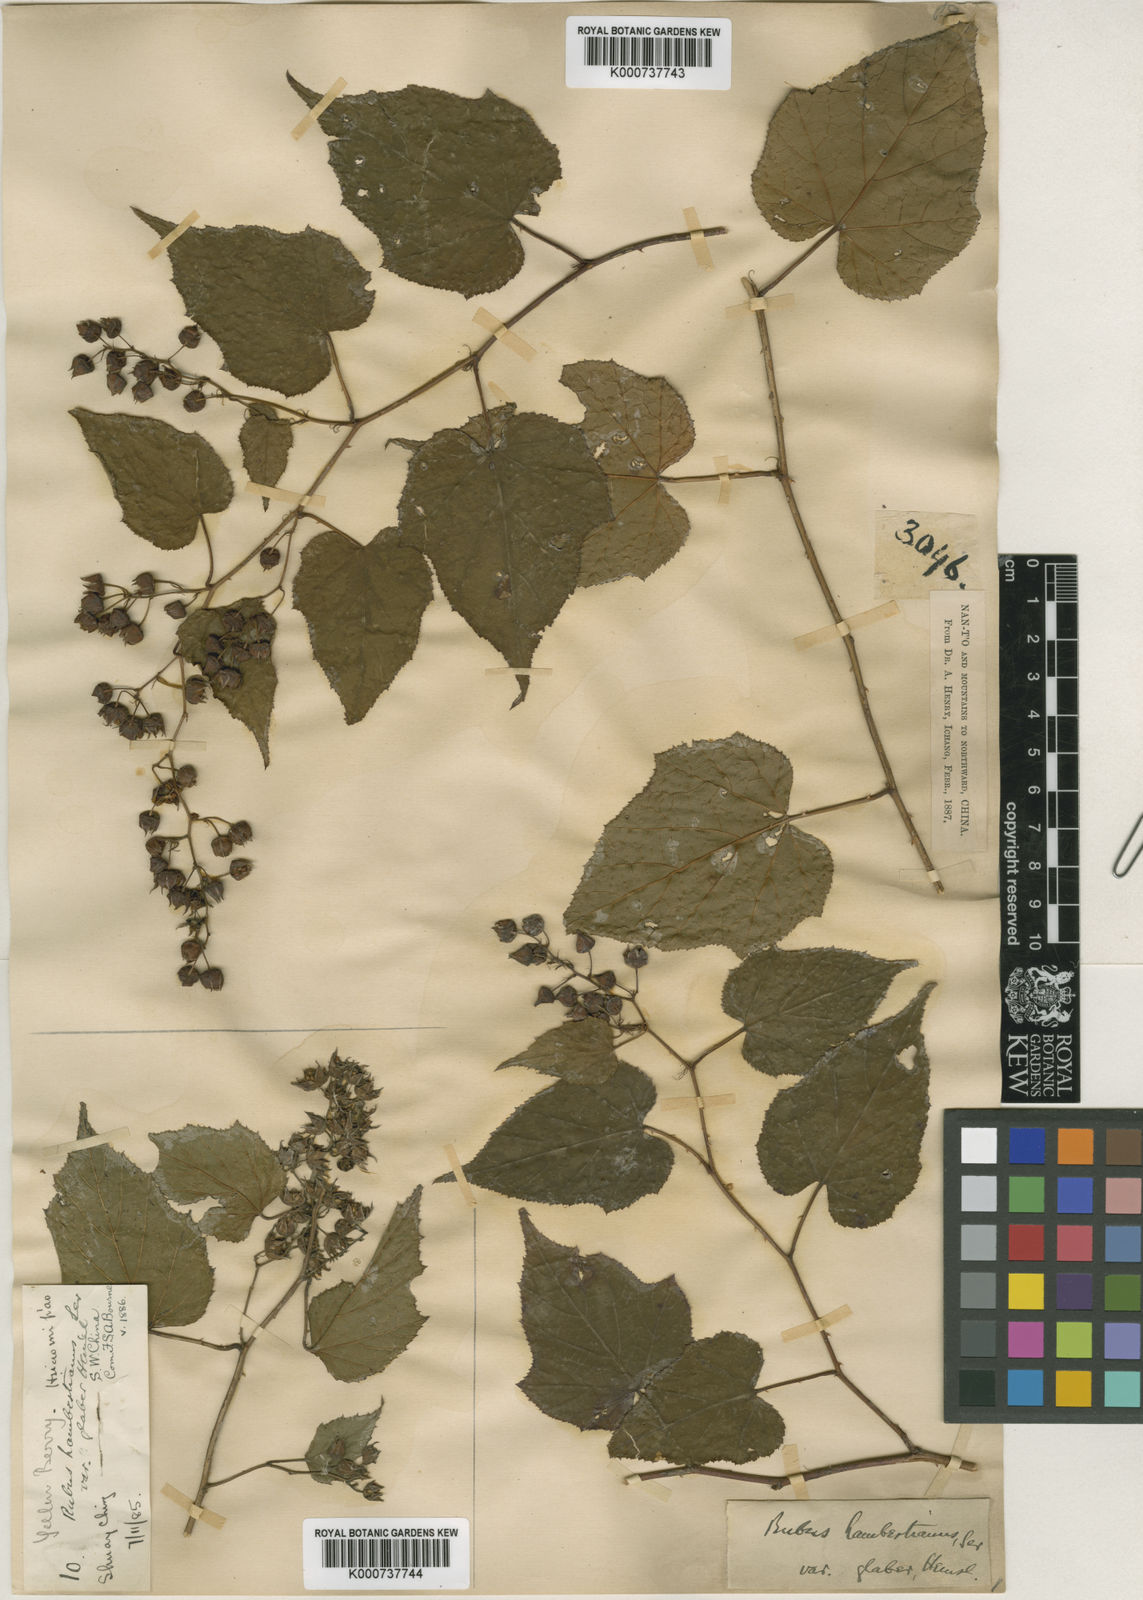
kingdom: Plantae
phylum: Tracheophyta
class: Magnoliopsida
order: Rosales
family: Rosaceae
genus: Rubus
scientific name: Rubus lambertianus
